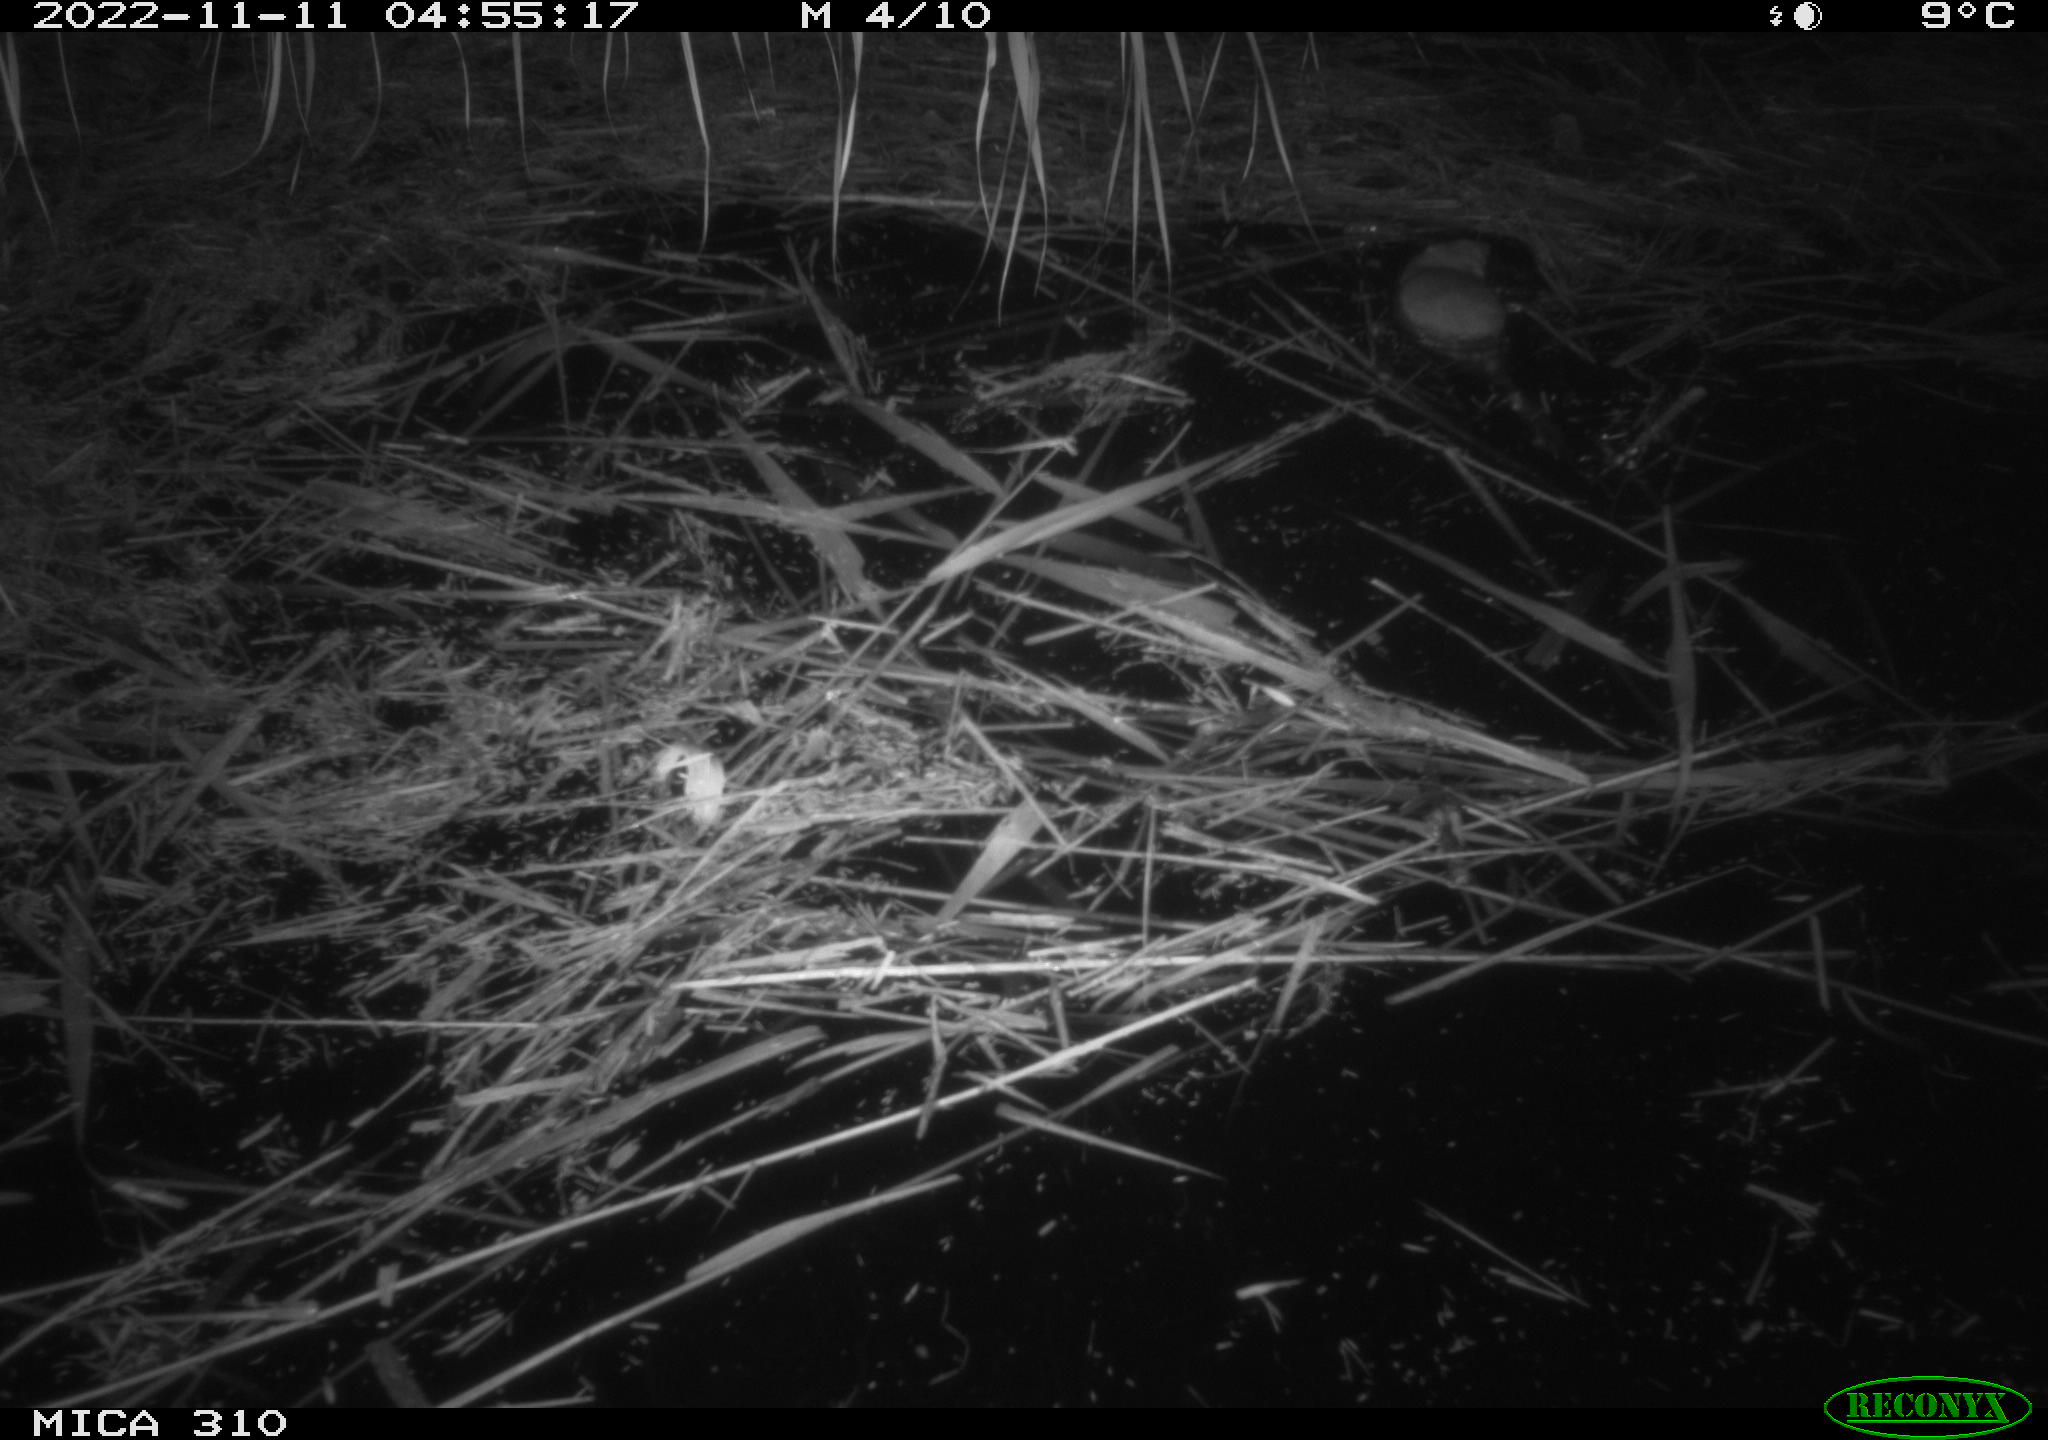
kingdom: Animalia
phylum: Chordata
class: Mammalia
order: Rodentia
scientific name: Rodentia
